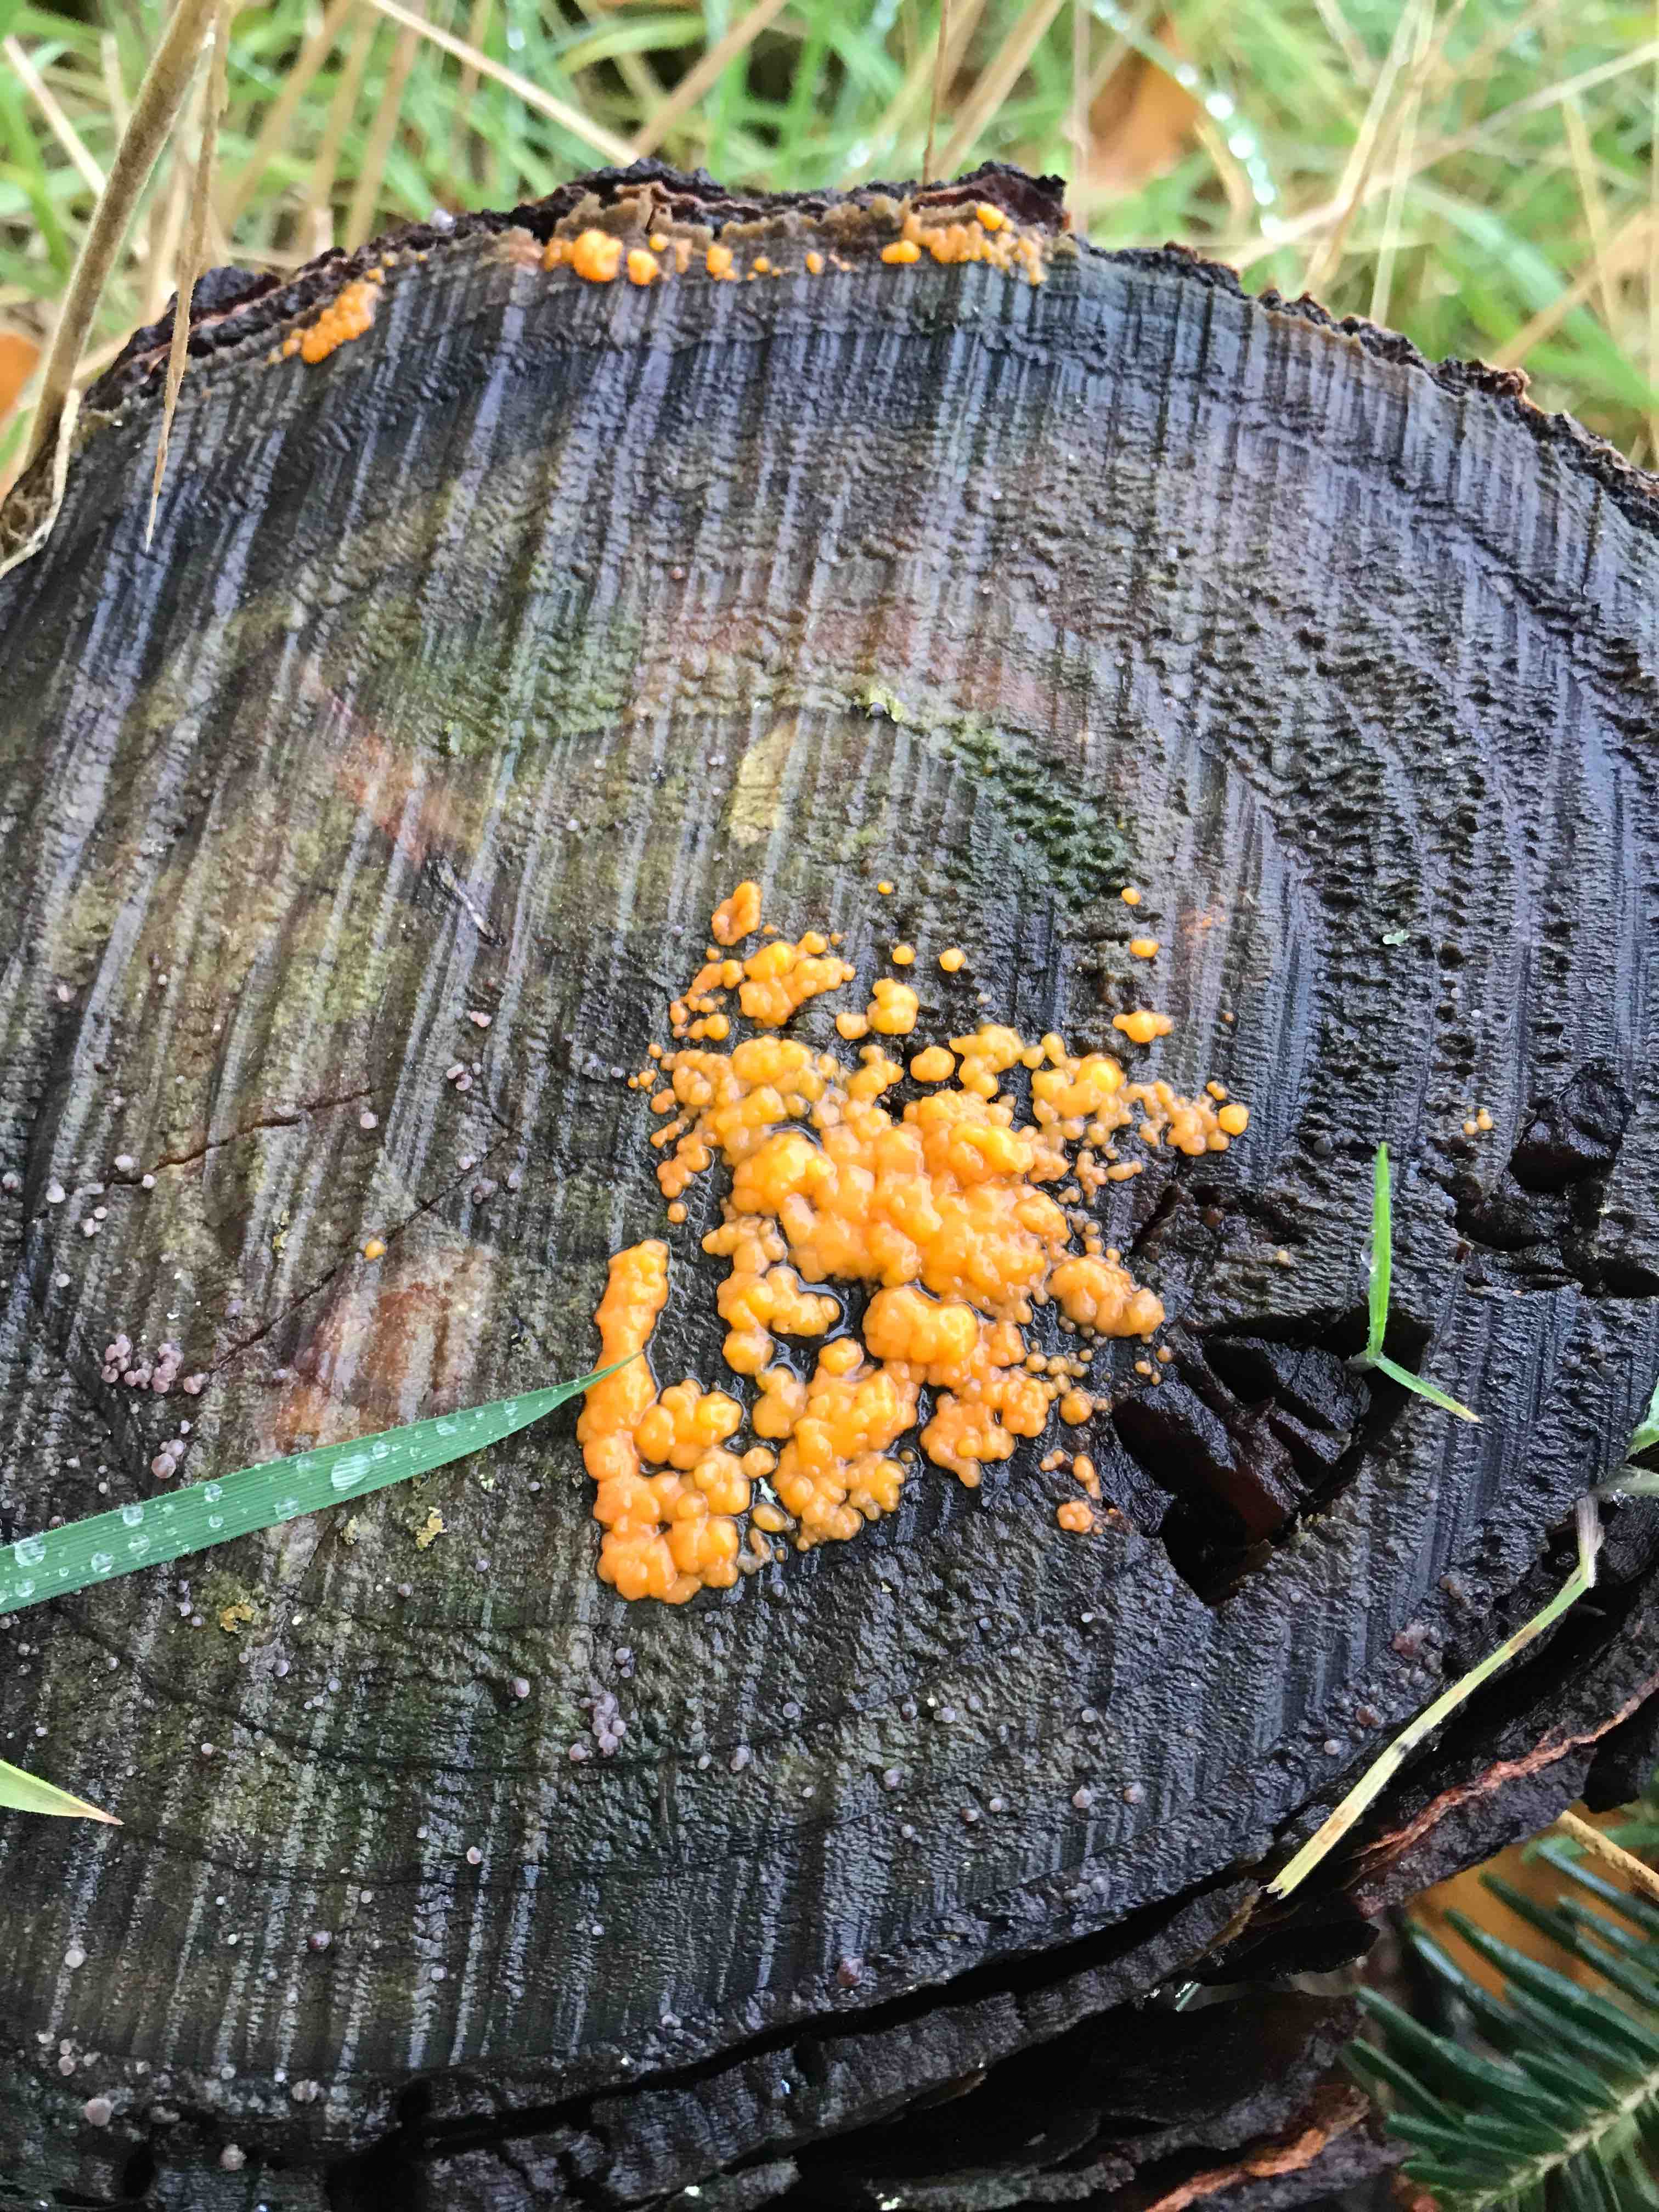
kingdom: Fungi
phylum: Basidiomycota
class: Dacrymycetes
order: Dacrymycetales
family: Dacrymycetaceae
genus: Dacrymyces
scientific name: Dacrymyces stillatus
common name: almindelig tåresvamp
